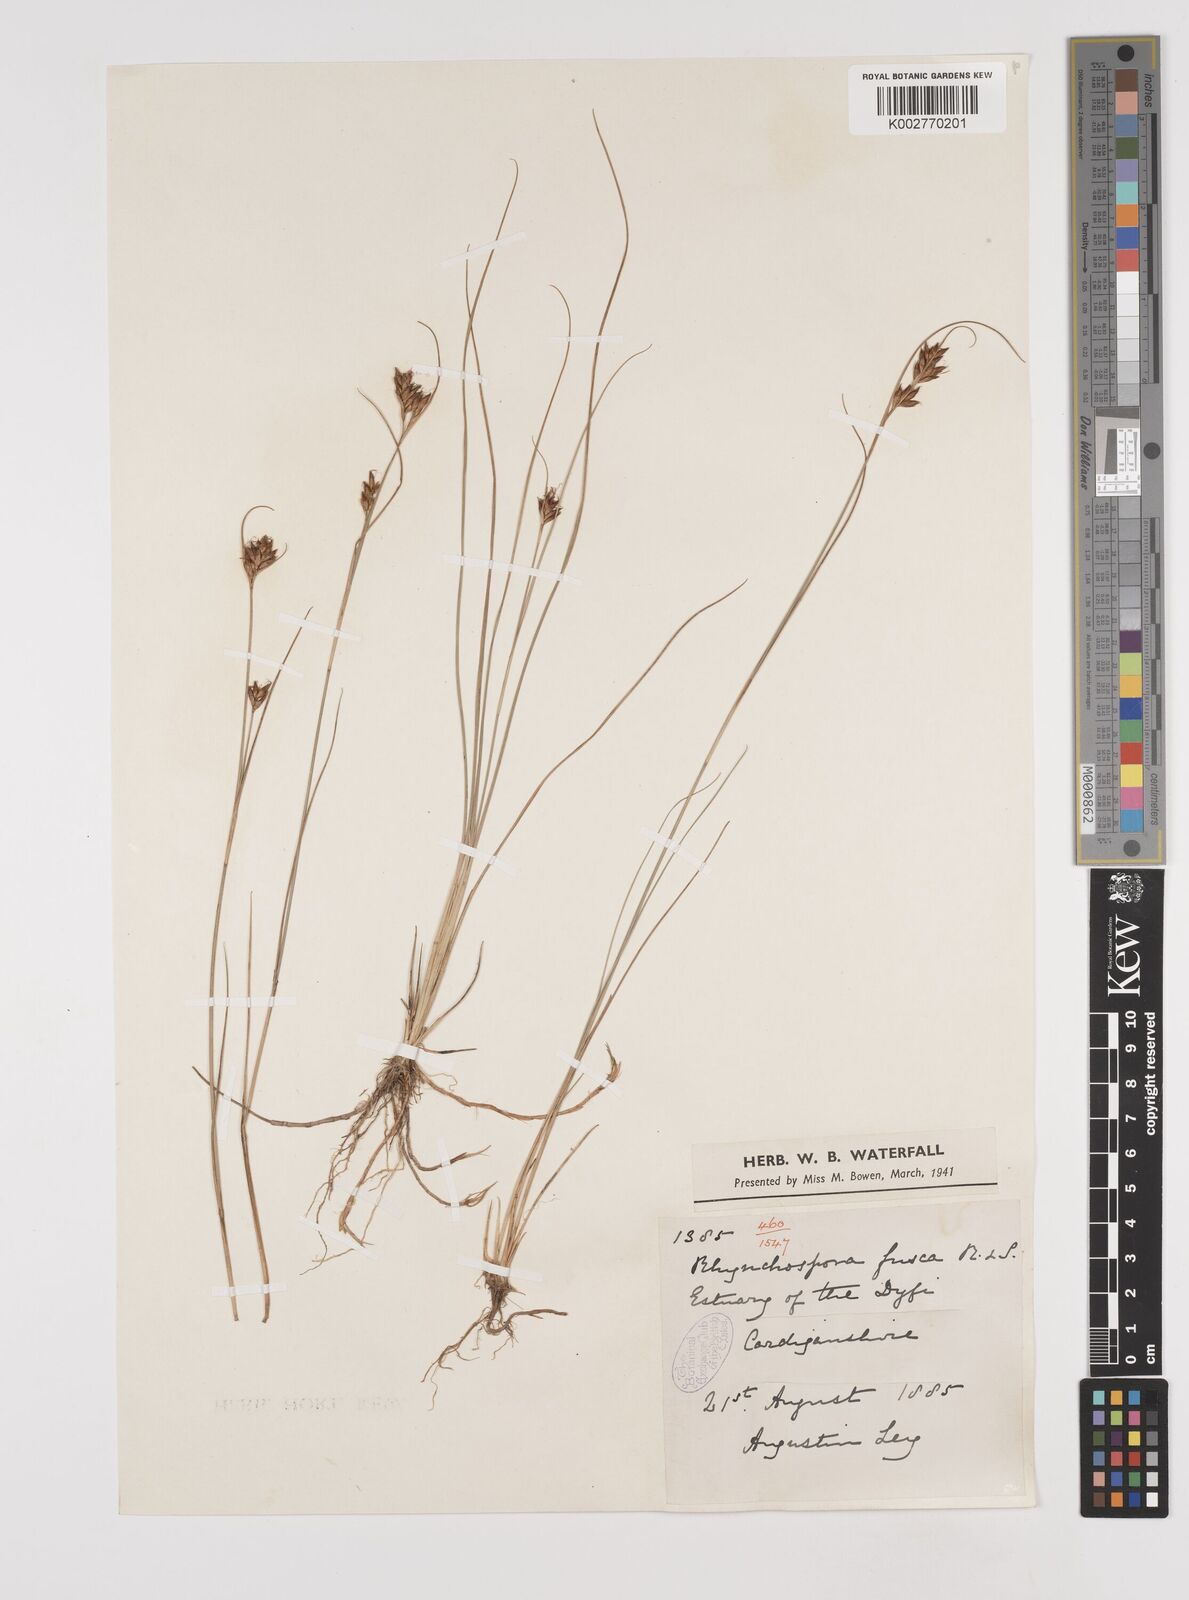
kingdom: Plantae
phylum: Tracheophyta
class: Liliopsida
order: Poales
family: Cyperaceae
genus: Rhynchospora
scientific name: Rhynchospora fusca
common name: Brown beak-sedge
